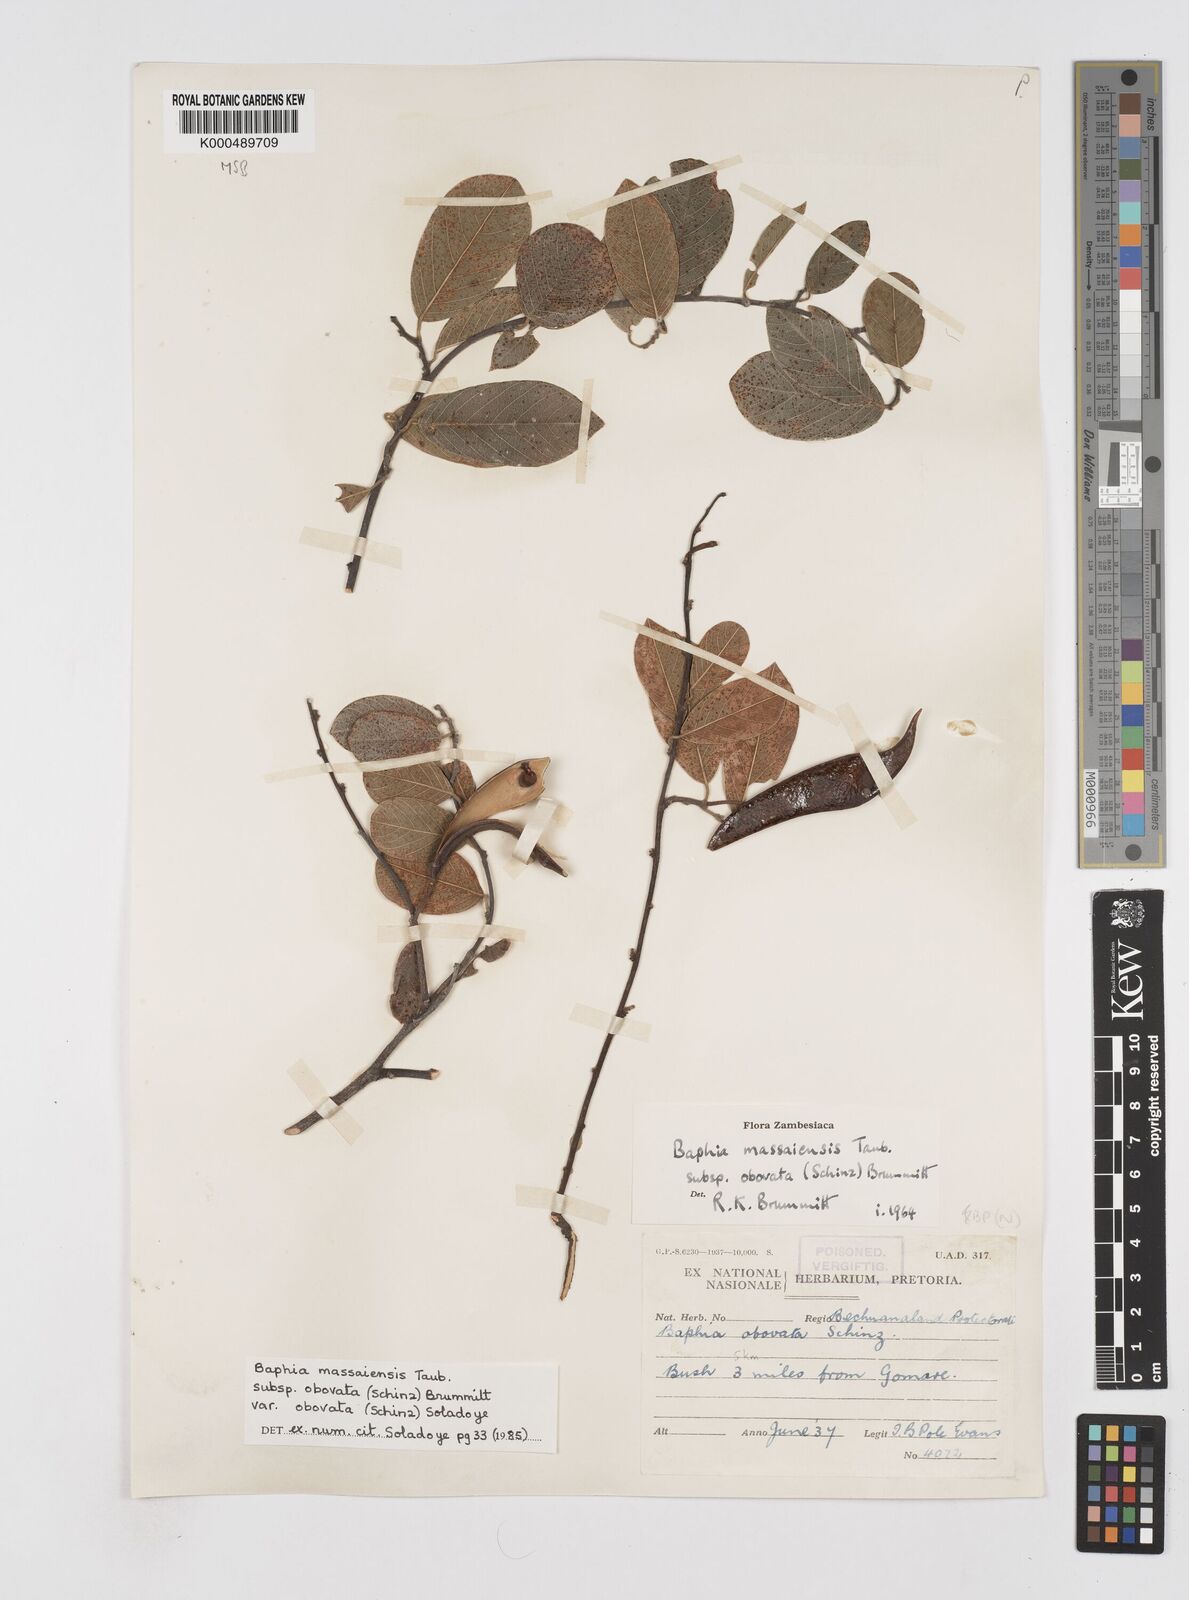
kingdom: Plantae
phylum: Tracheophyta
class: Magnoliopsida
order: Fabales
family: Fabaceae
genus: Baphia
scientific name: Baphia massaiensis
